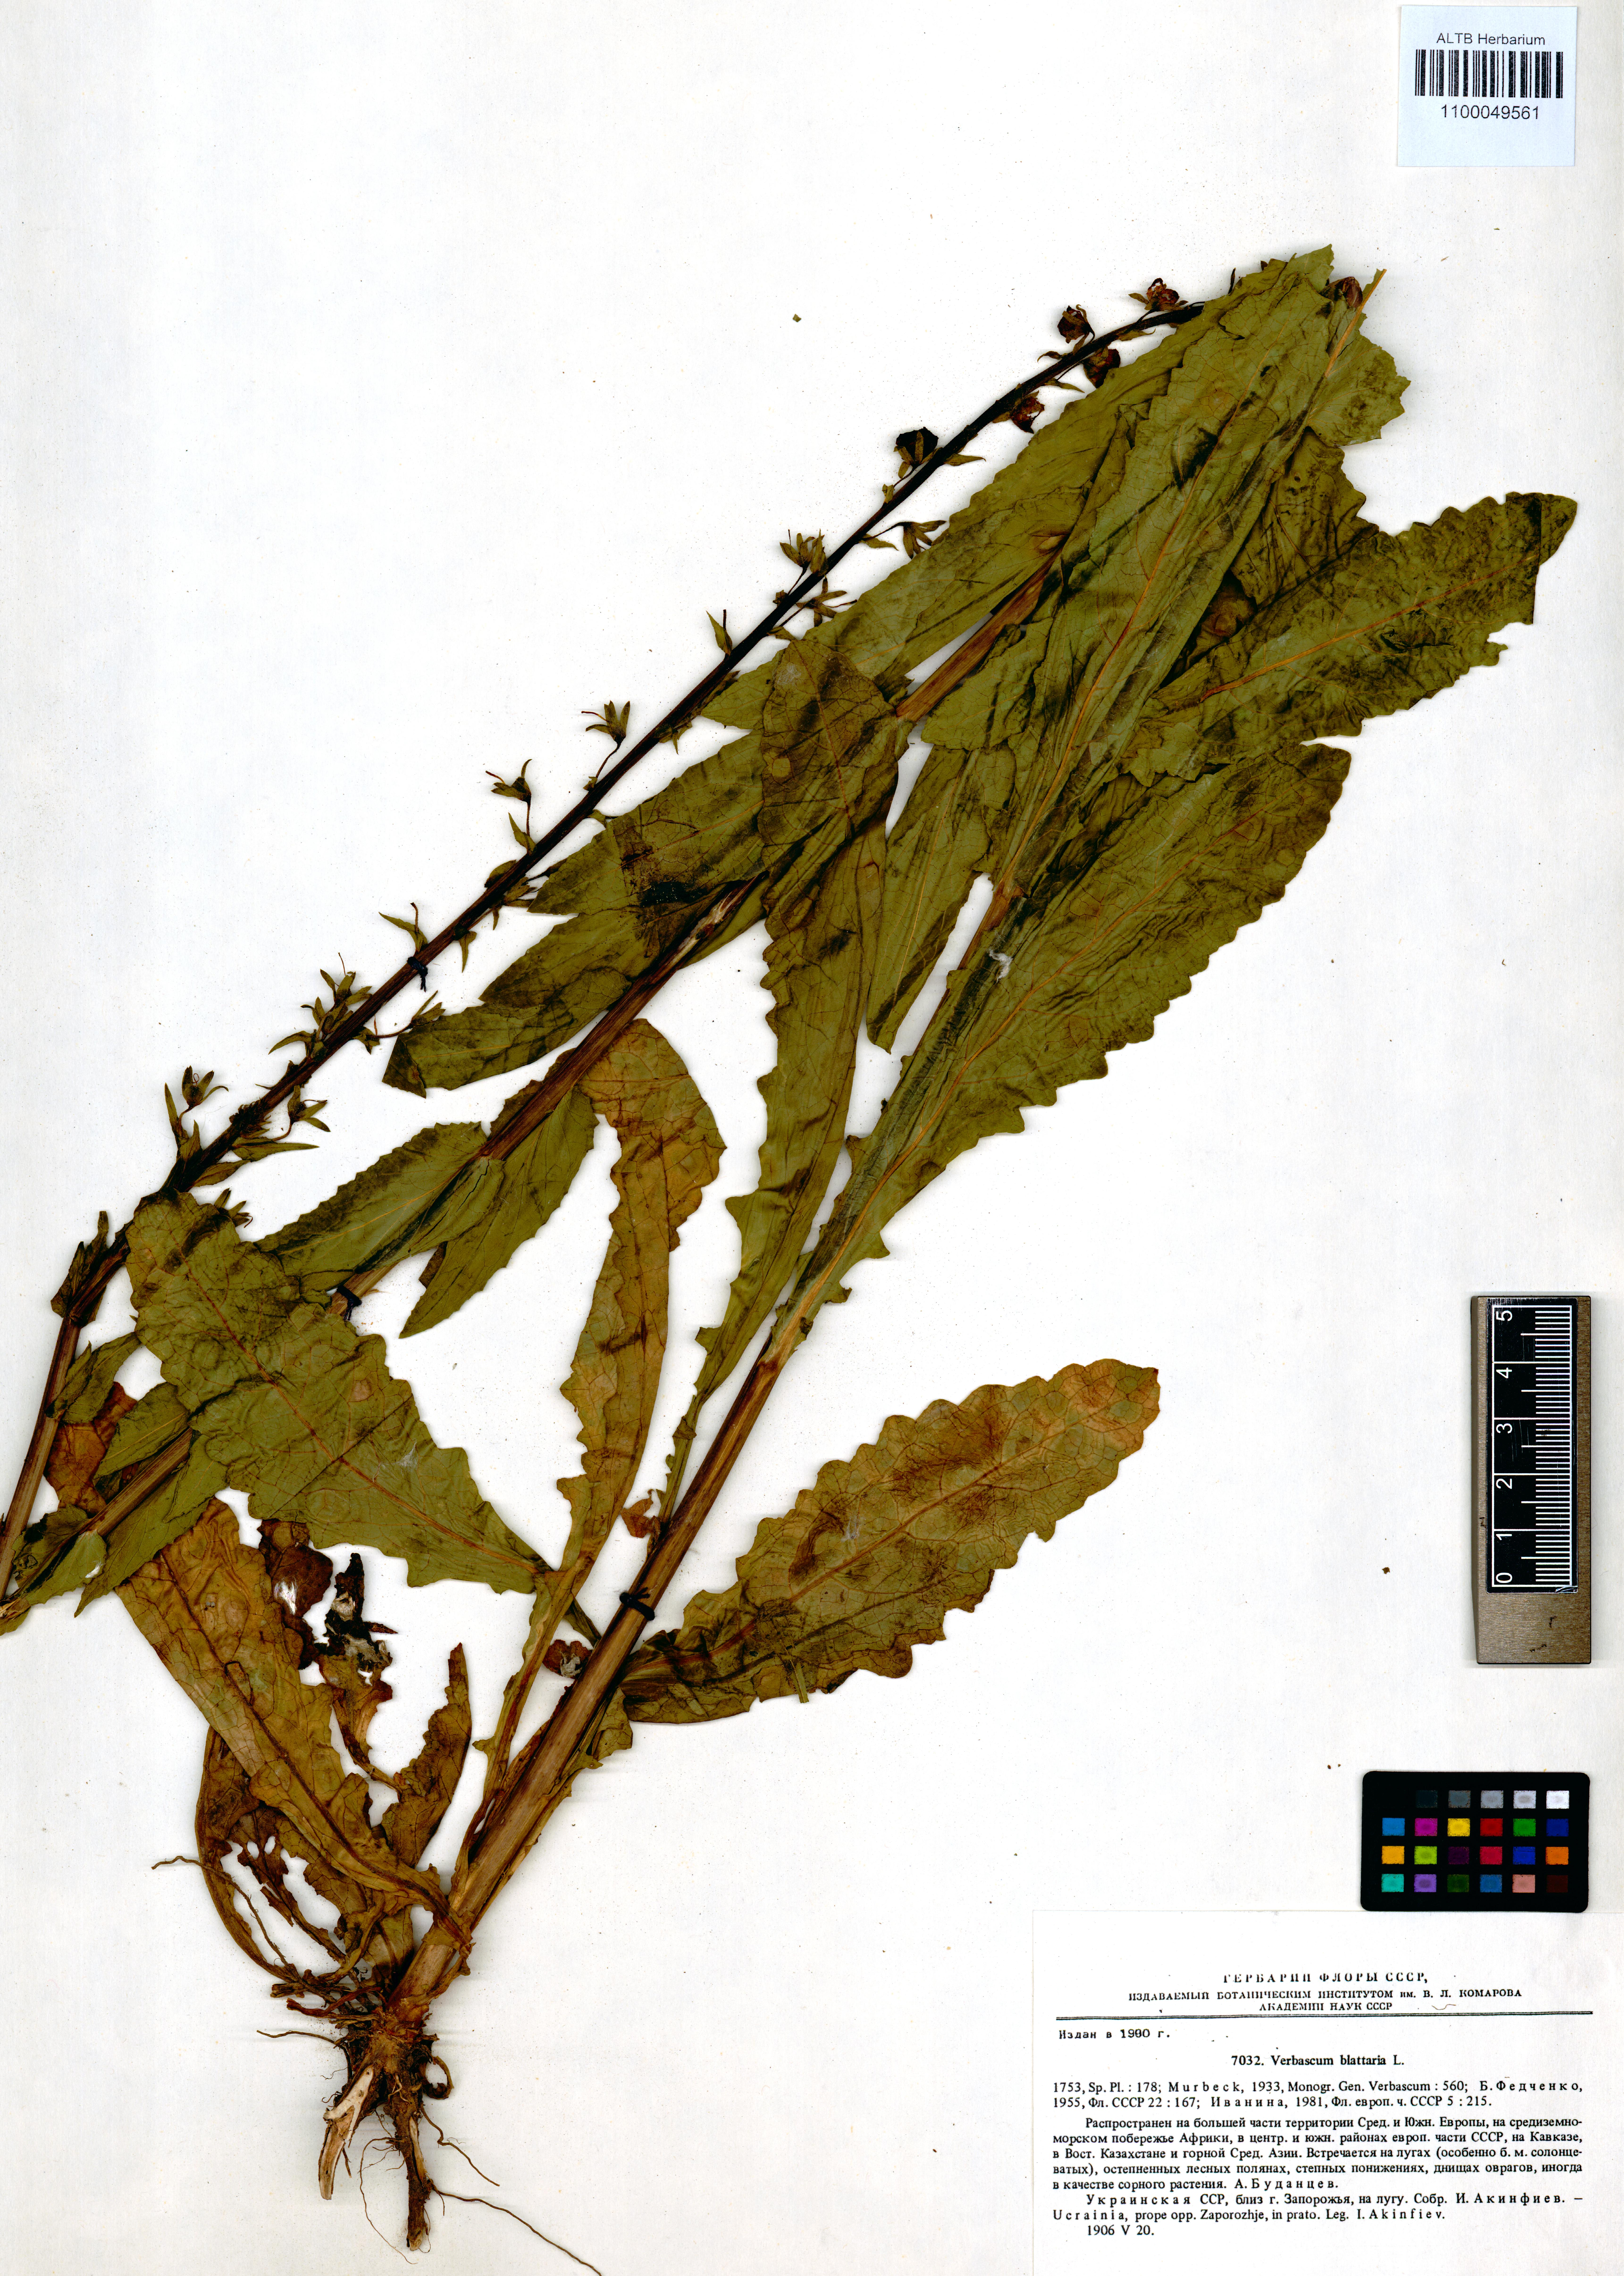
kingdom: Plantae
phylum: Tracheophyta
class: Magnoliopsida
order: Lamiales
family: Scrophulariaceae
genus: Verbascum
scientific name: Verbascum blattaria
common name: Moth mullein
